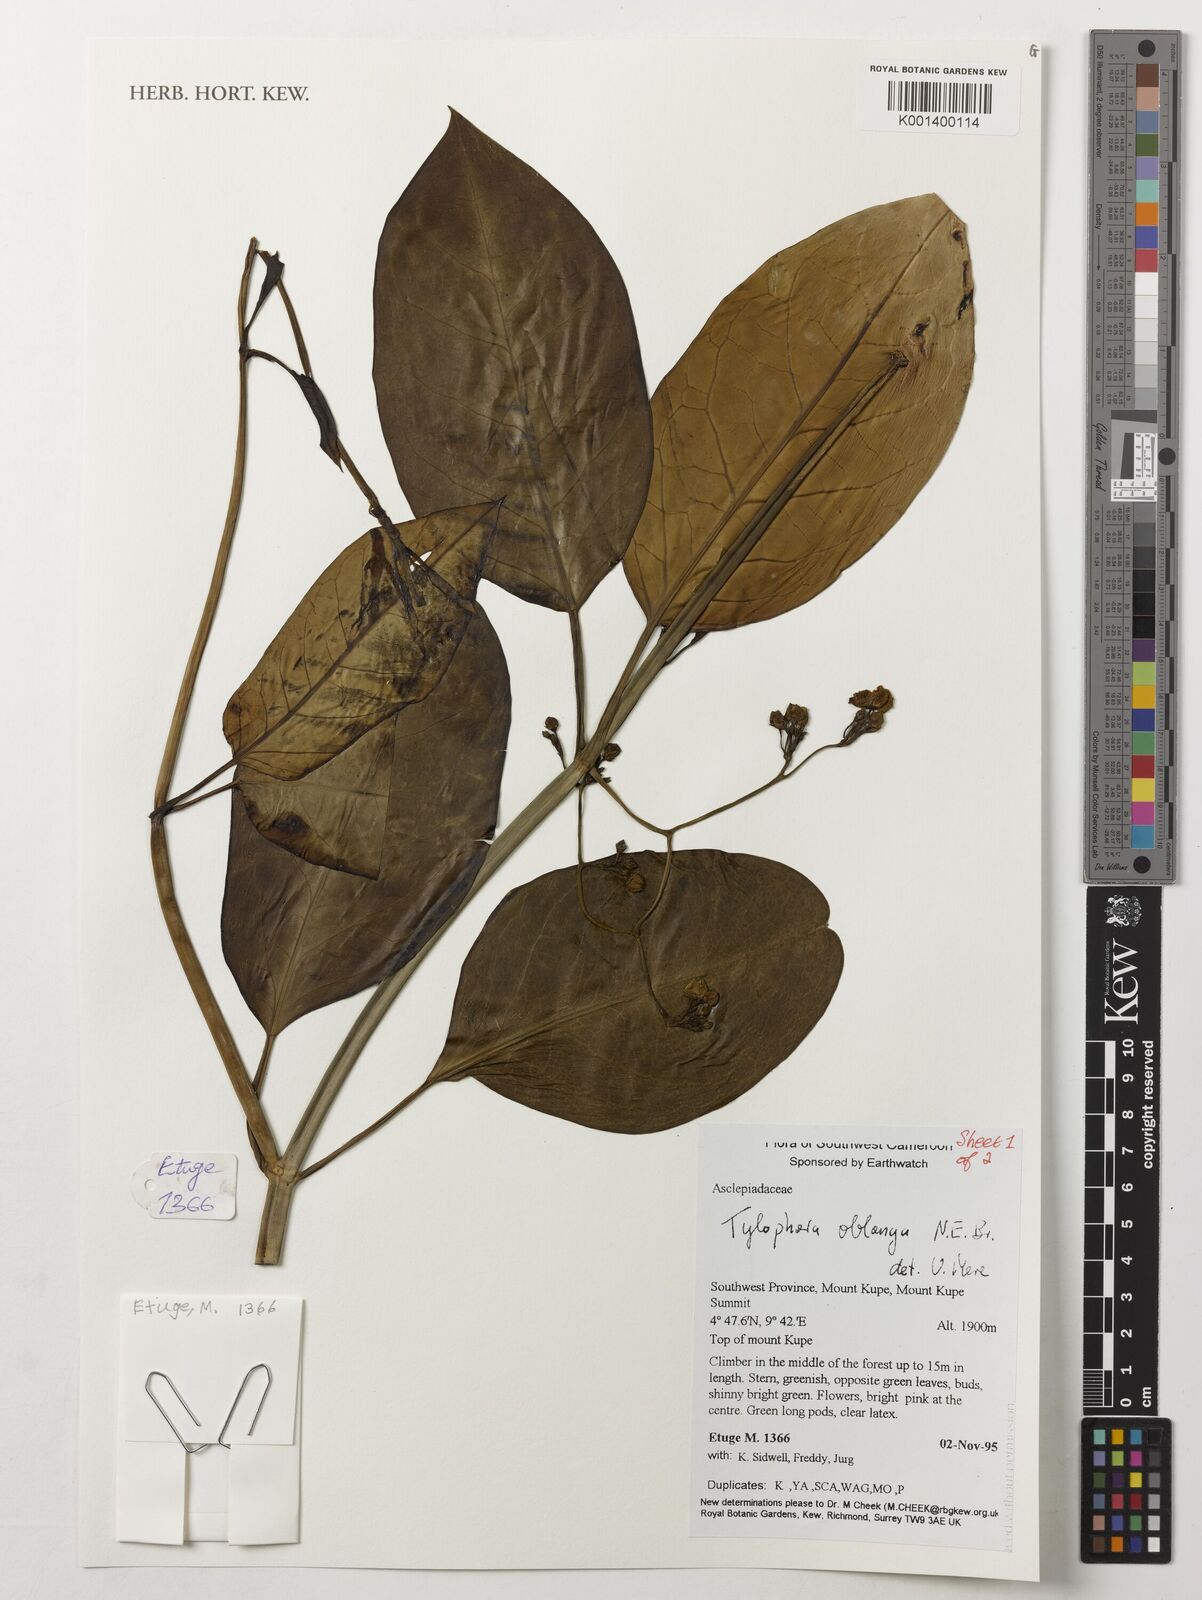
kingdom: Plantae
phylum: Tracheophyta
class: Magnoliopsida
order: Gentianales
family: Apocynaceae
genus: Vincetoxicum
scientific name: Vincetoxicum oblongum
